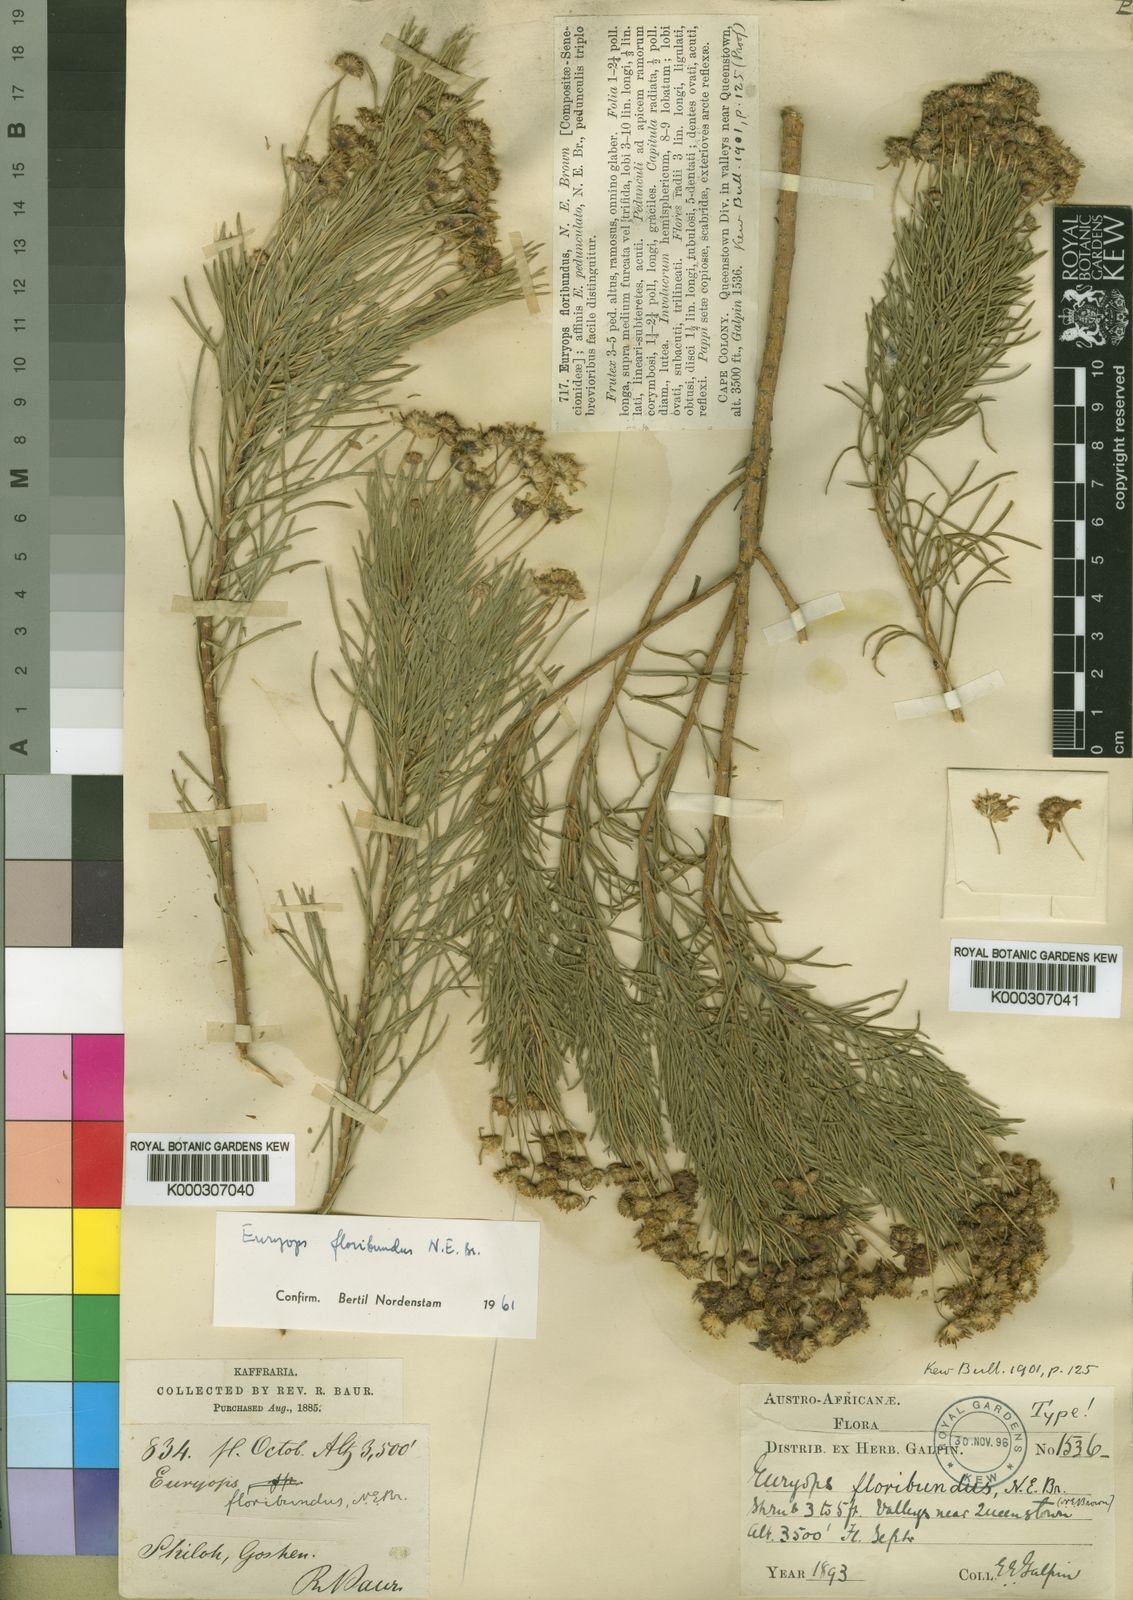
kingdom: Plantae
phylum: Tracheophyta
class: Magnoliopsida
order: Asterales
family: Asteraceae
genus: Euryops
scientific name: Euryops floribundus
